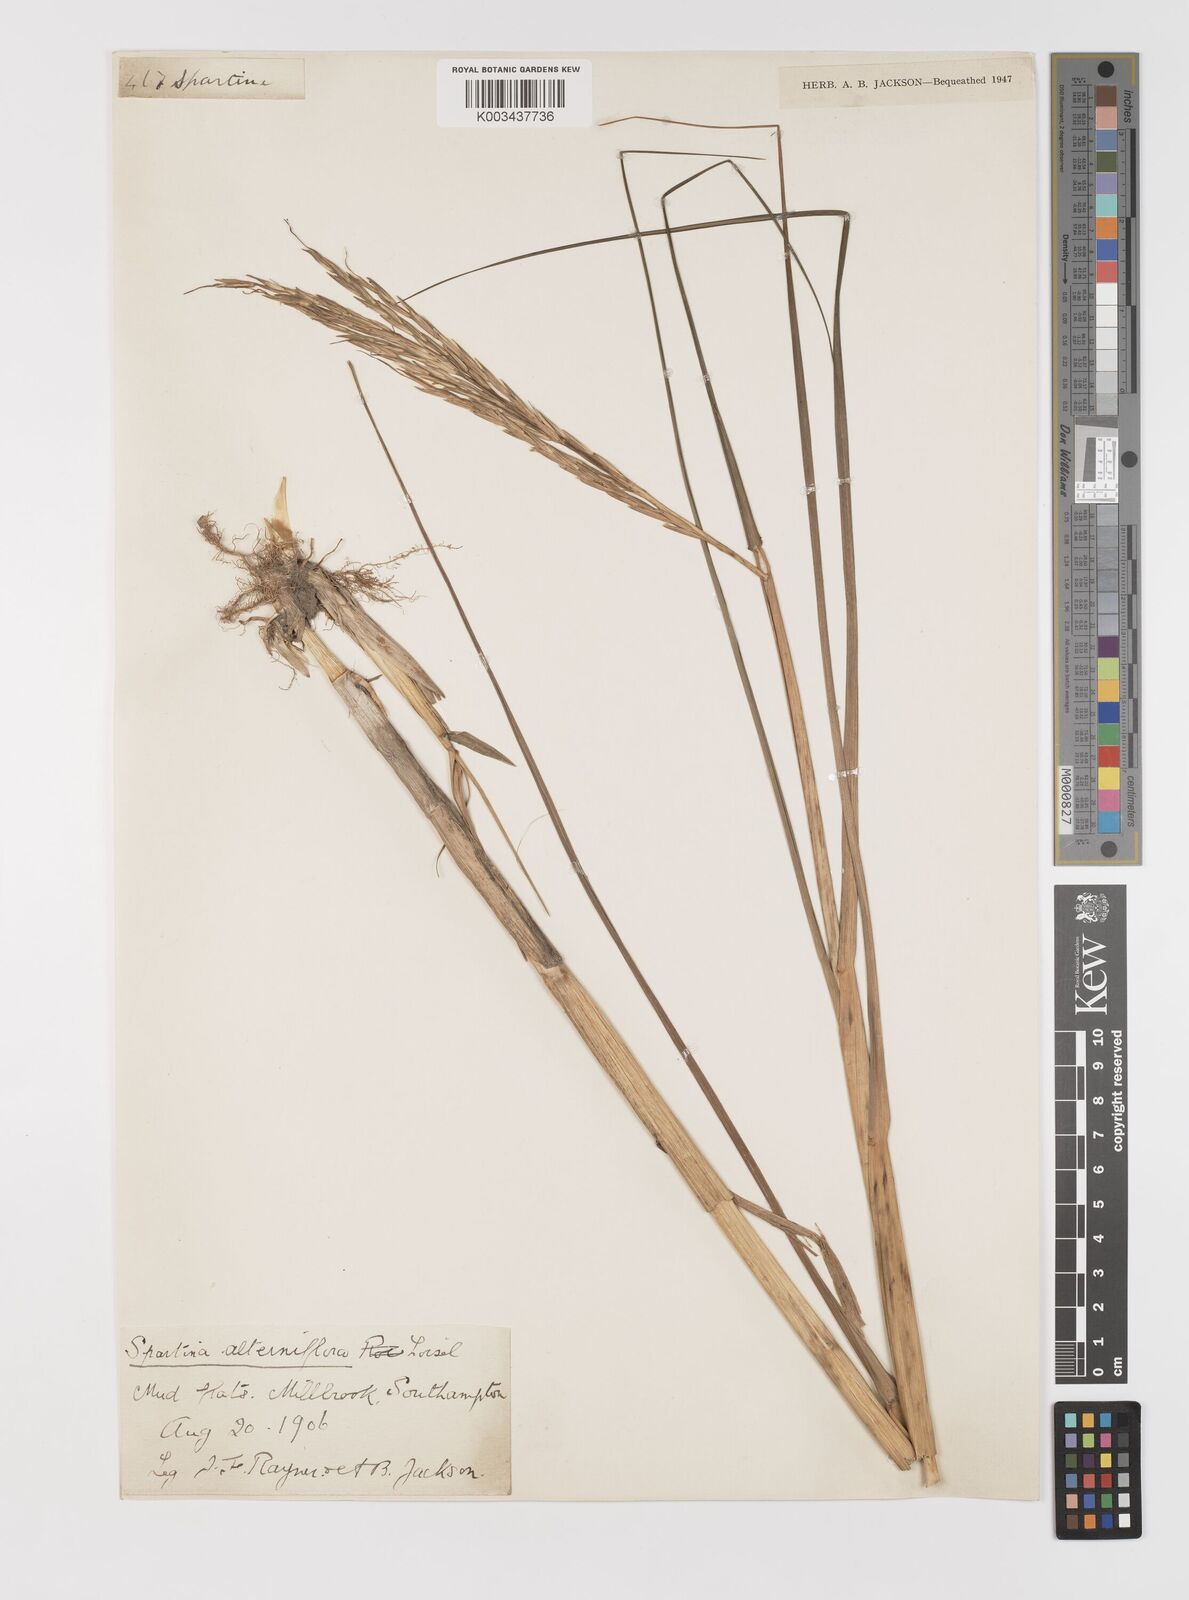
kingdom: Plantae
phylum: Tracheophyta
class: Liliopsida
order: Poales
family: Poaceae
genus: Sporobolus
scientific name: Sporobolus alterniflorus
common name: Atlantic cordgrass
